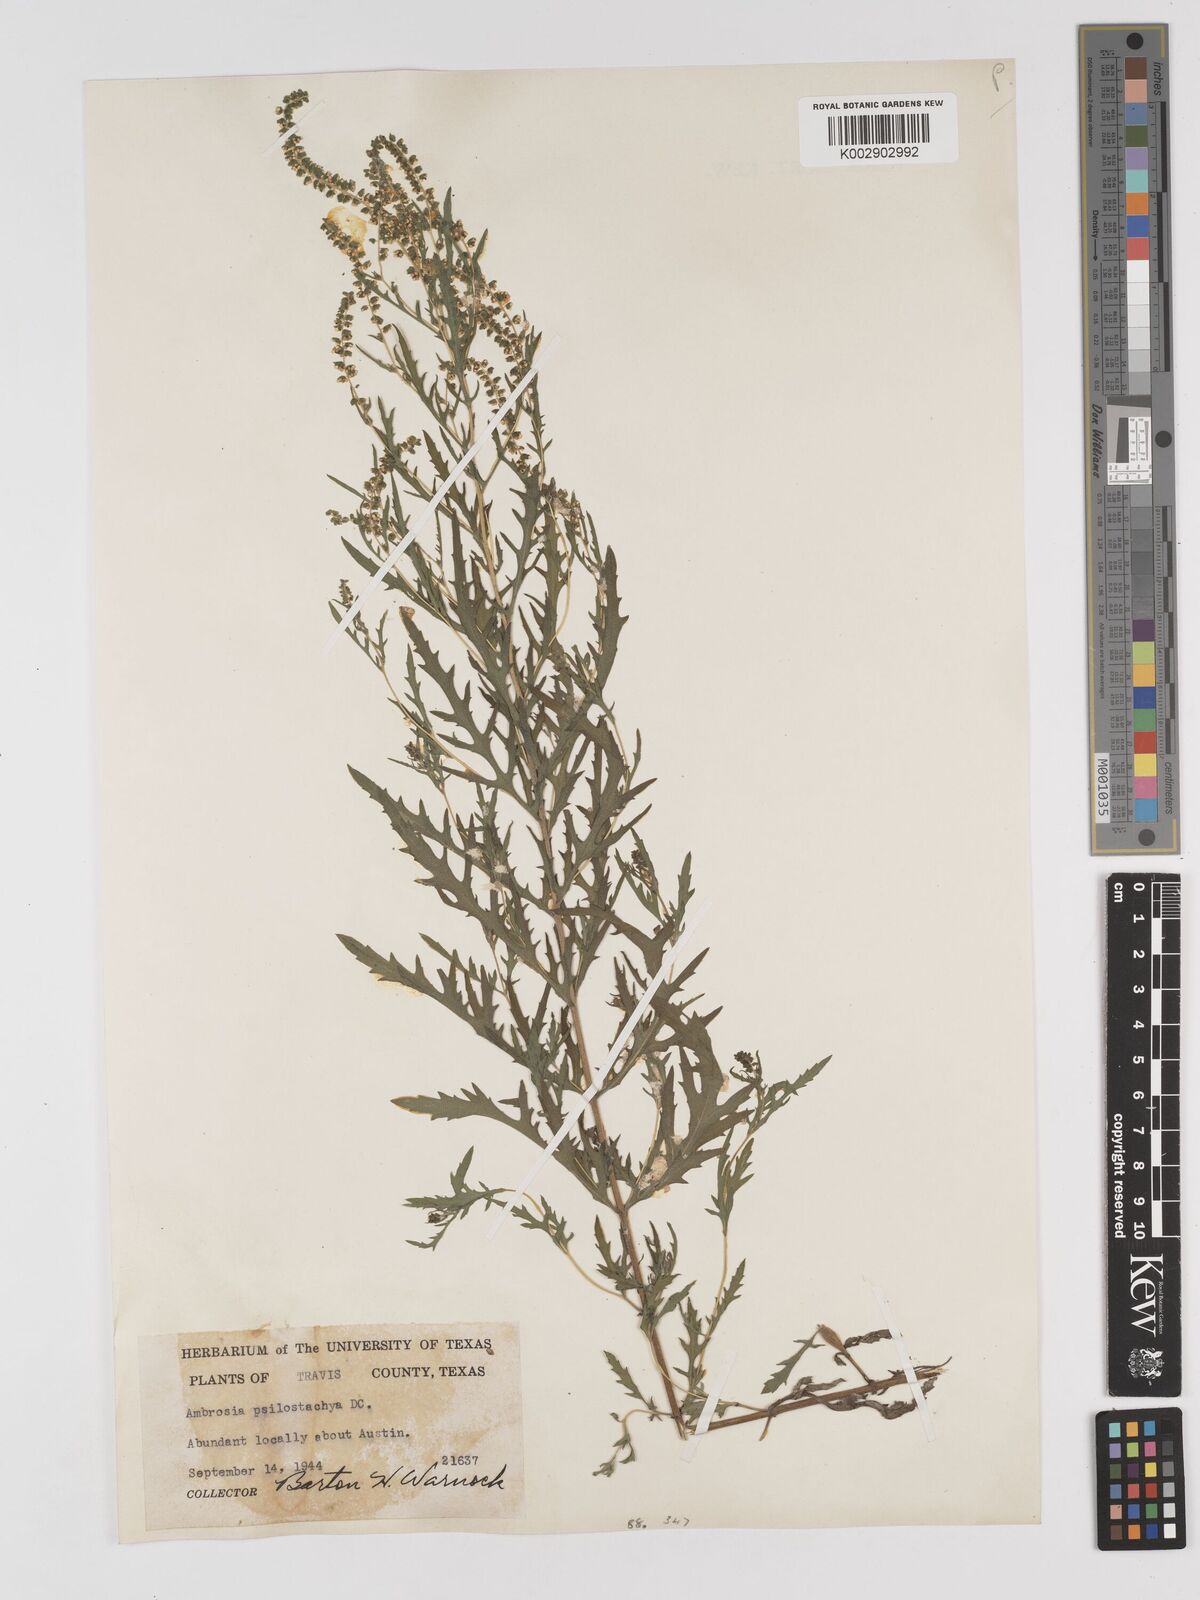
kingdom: Plantae
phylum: Tracheophyta
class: Magnoliopsida
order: Asterales
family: Asteraceae
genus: Ambrosia
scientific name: Ambrosia psilostachya
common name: Perennial ragweed
